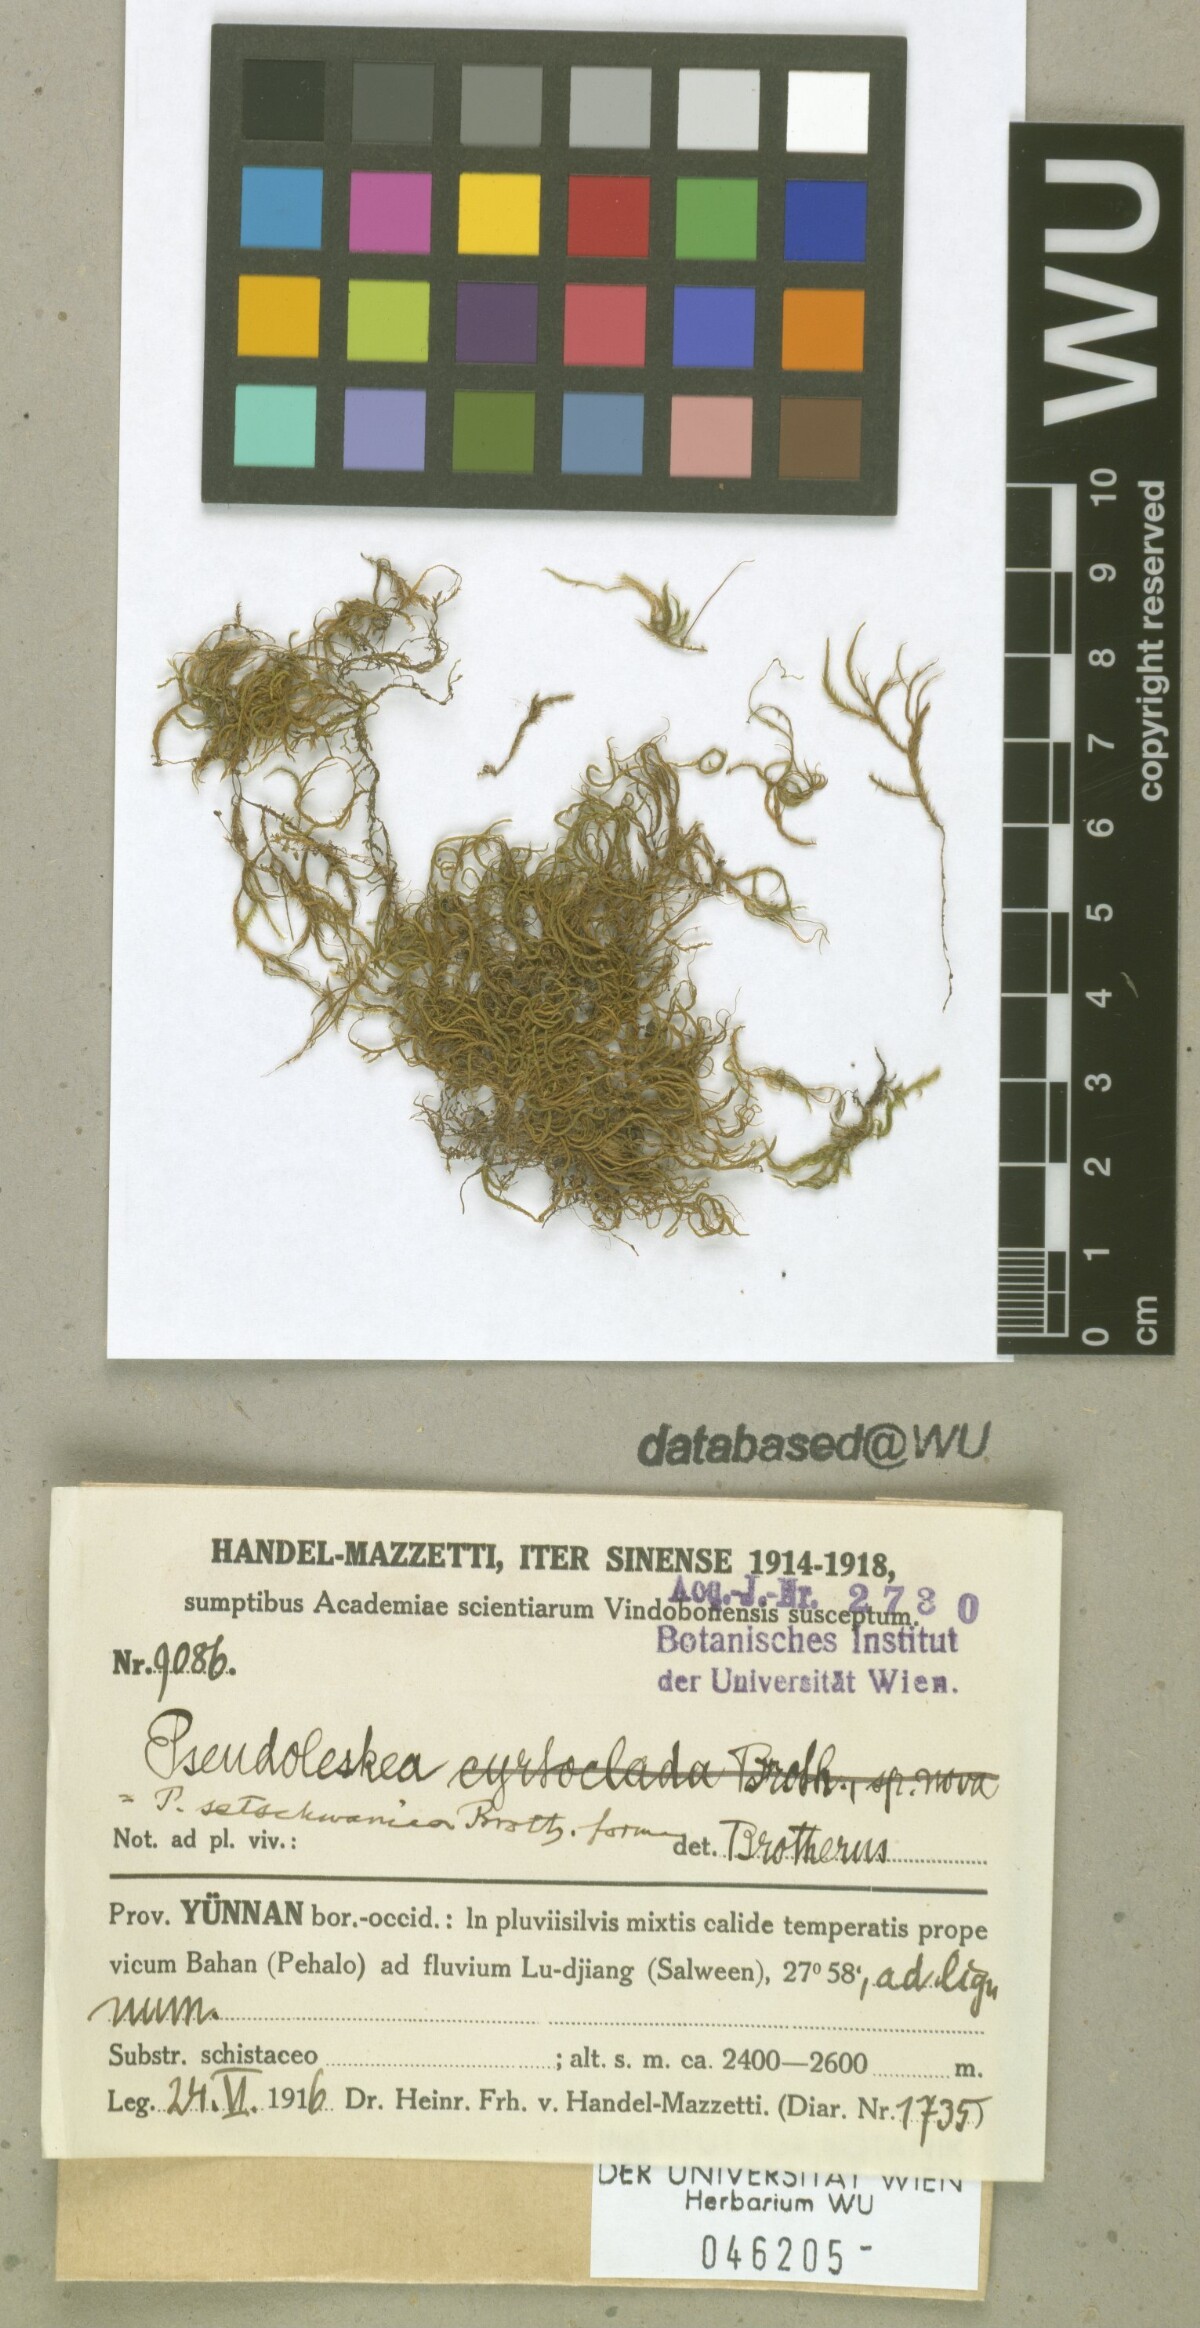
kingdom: Plantae
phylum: Bryophyta
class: Bryopsida
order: Hypnales
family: Pseudoleskeaceae
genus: Lescuraea
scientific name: Lescuraea setschwanica
